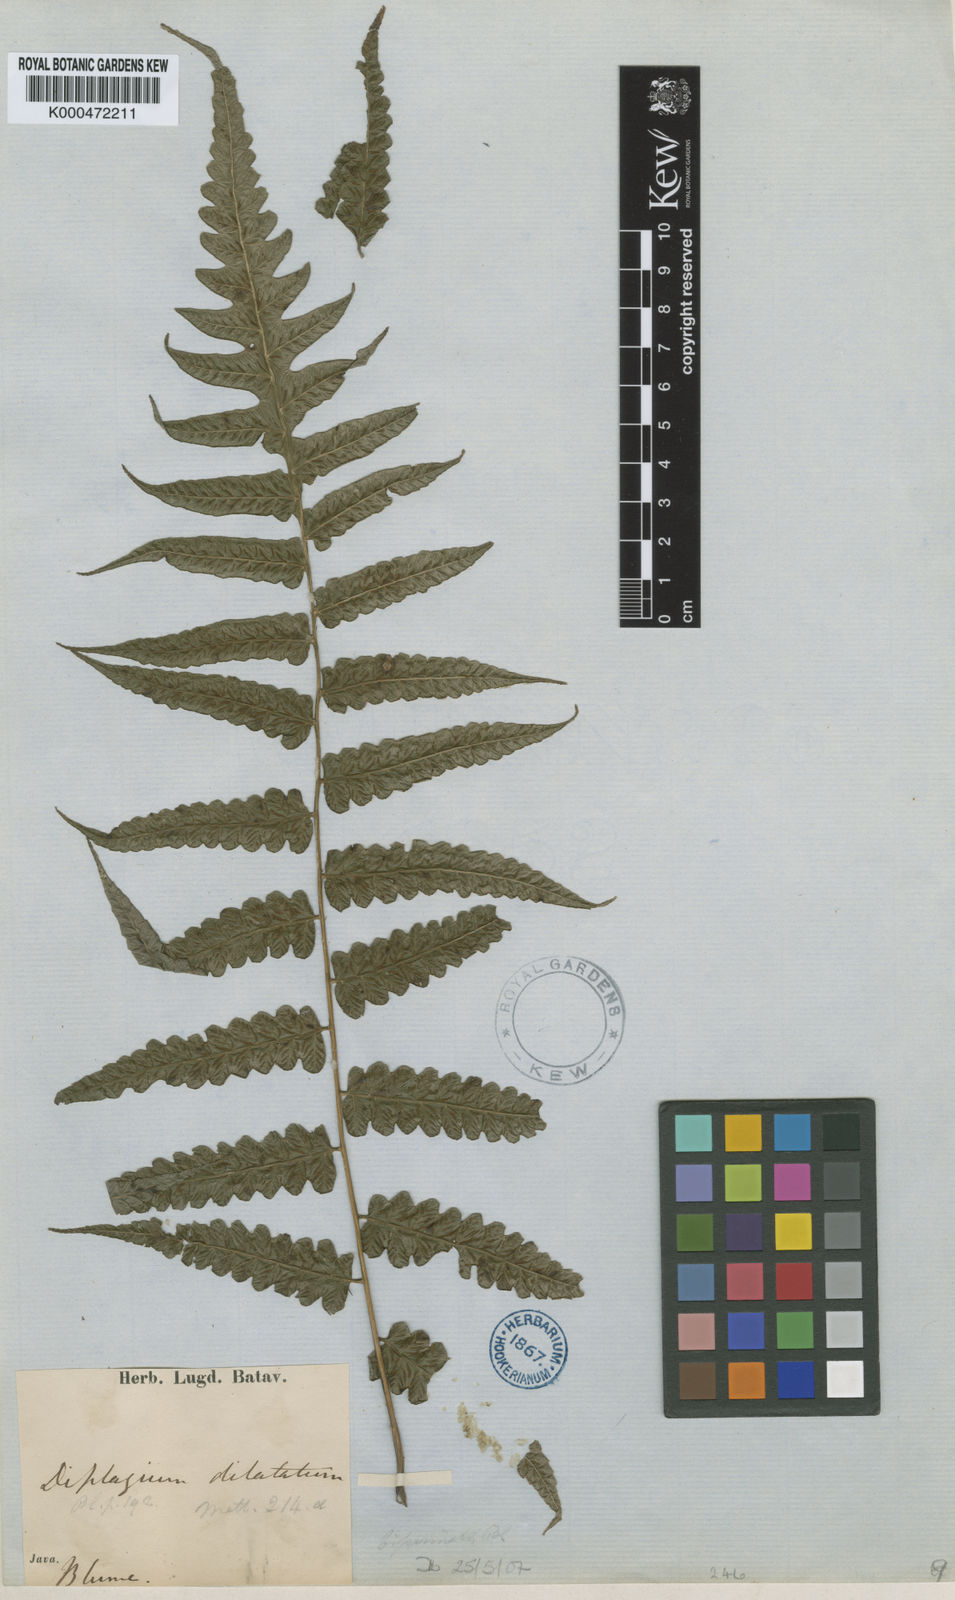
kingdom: Plantae
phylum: Tracheophyta
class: Polypodiopsida
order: Polypodiales
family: Athyriaceae
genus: Diplazium
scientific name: Diplazium dilatatum
